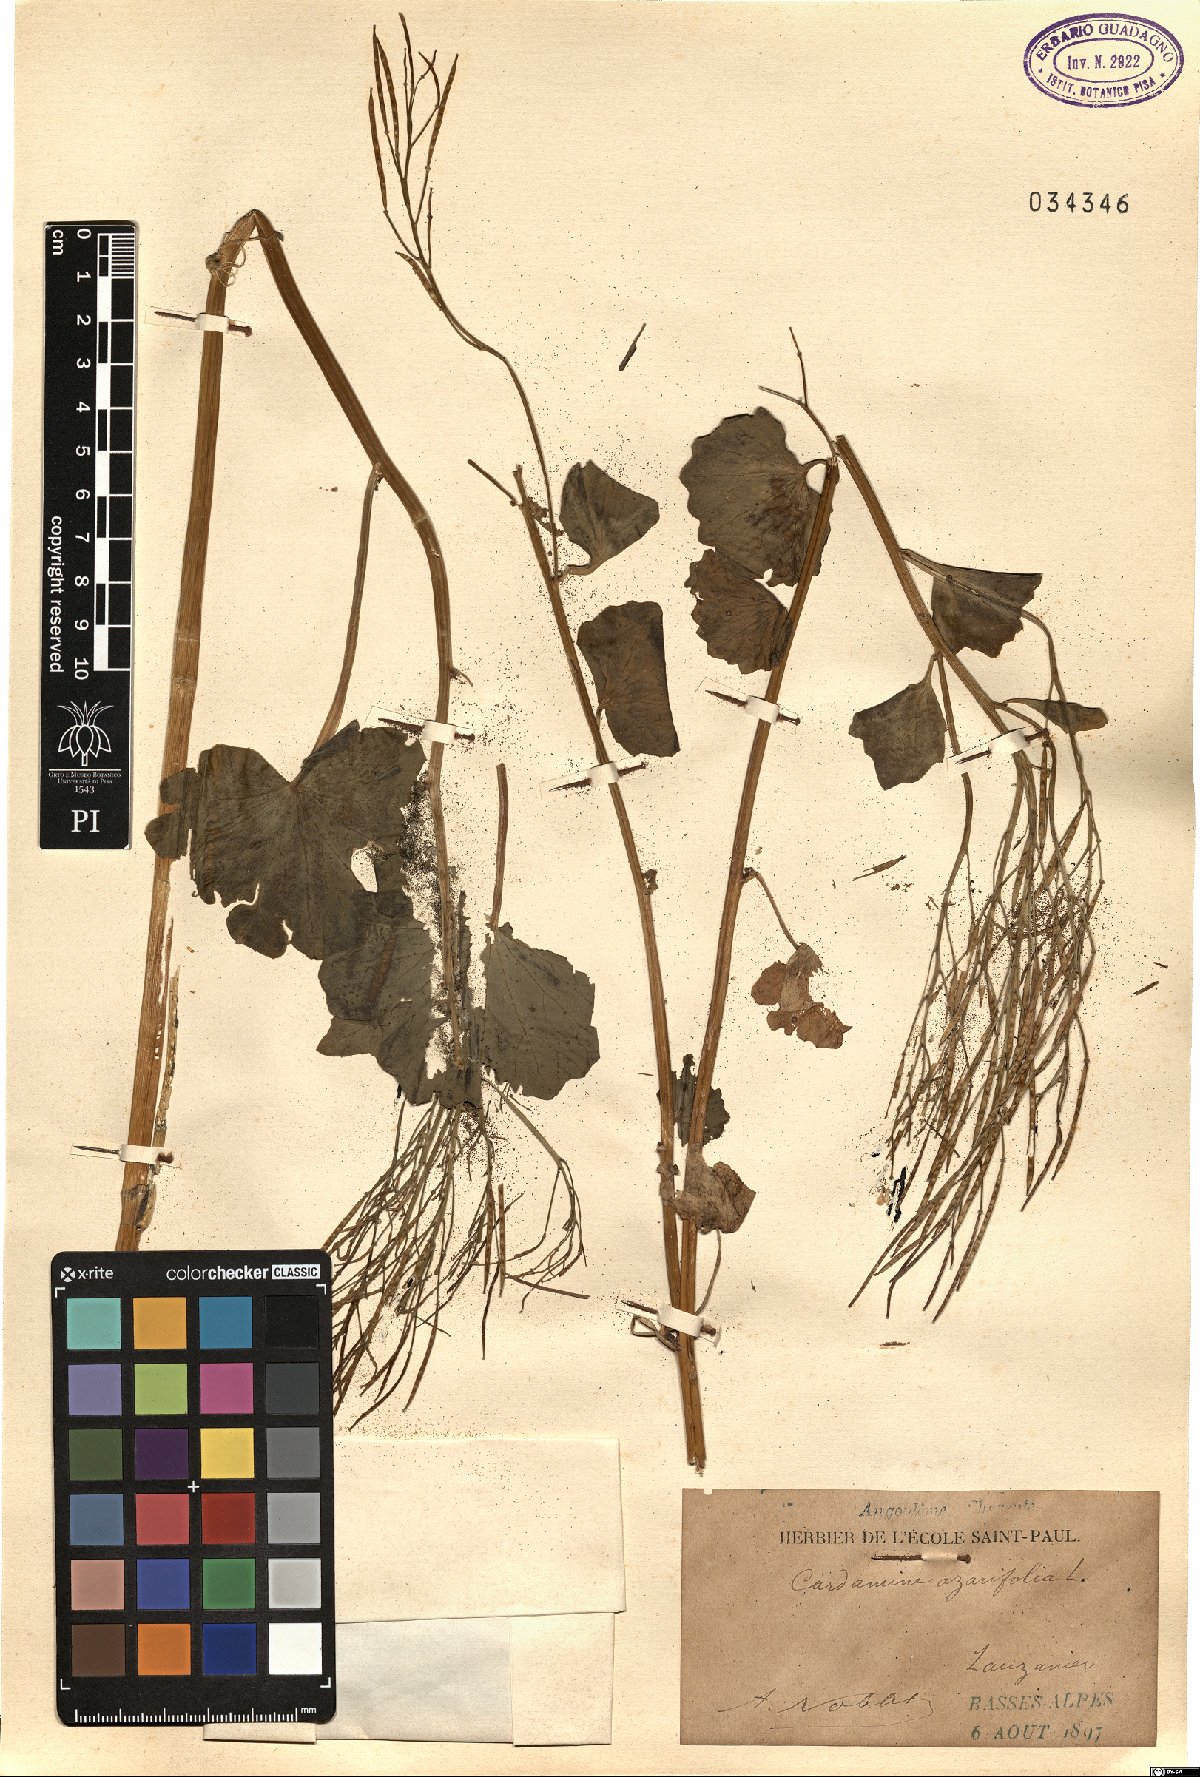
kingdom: Plantae
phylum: Tracheophyta
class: Magnoliopsida
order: Brassicales
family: Brassicaceae
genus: Cardamine
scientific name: Cardamine asarifolia
